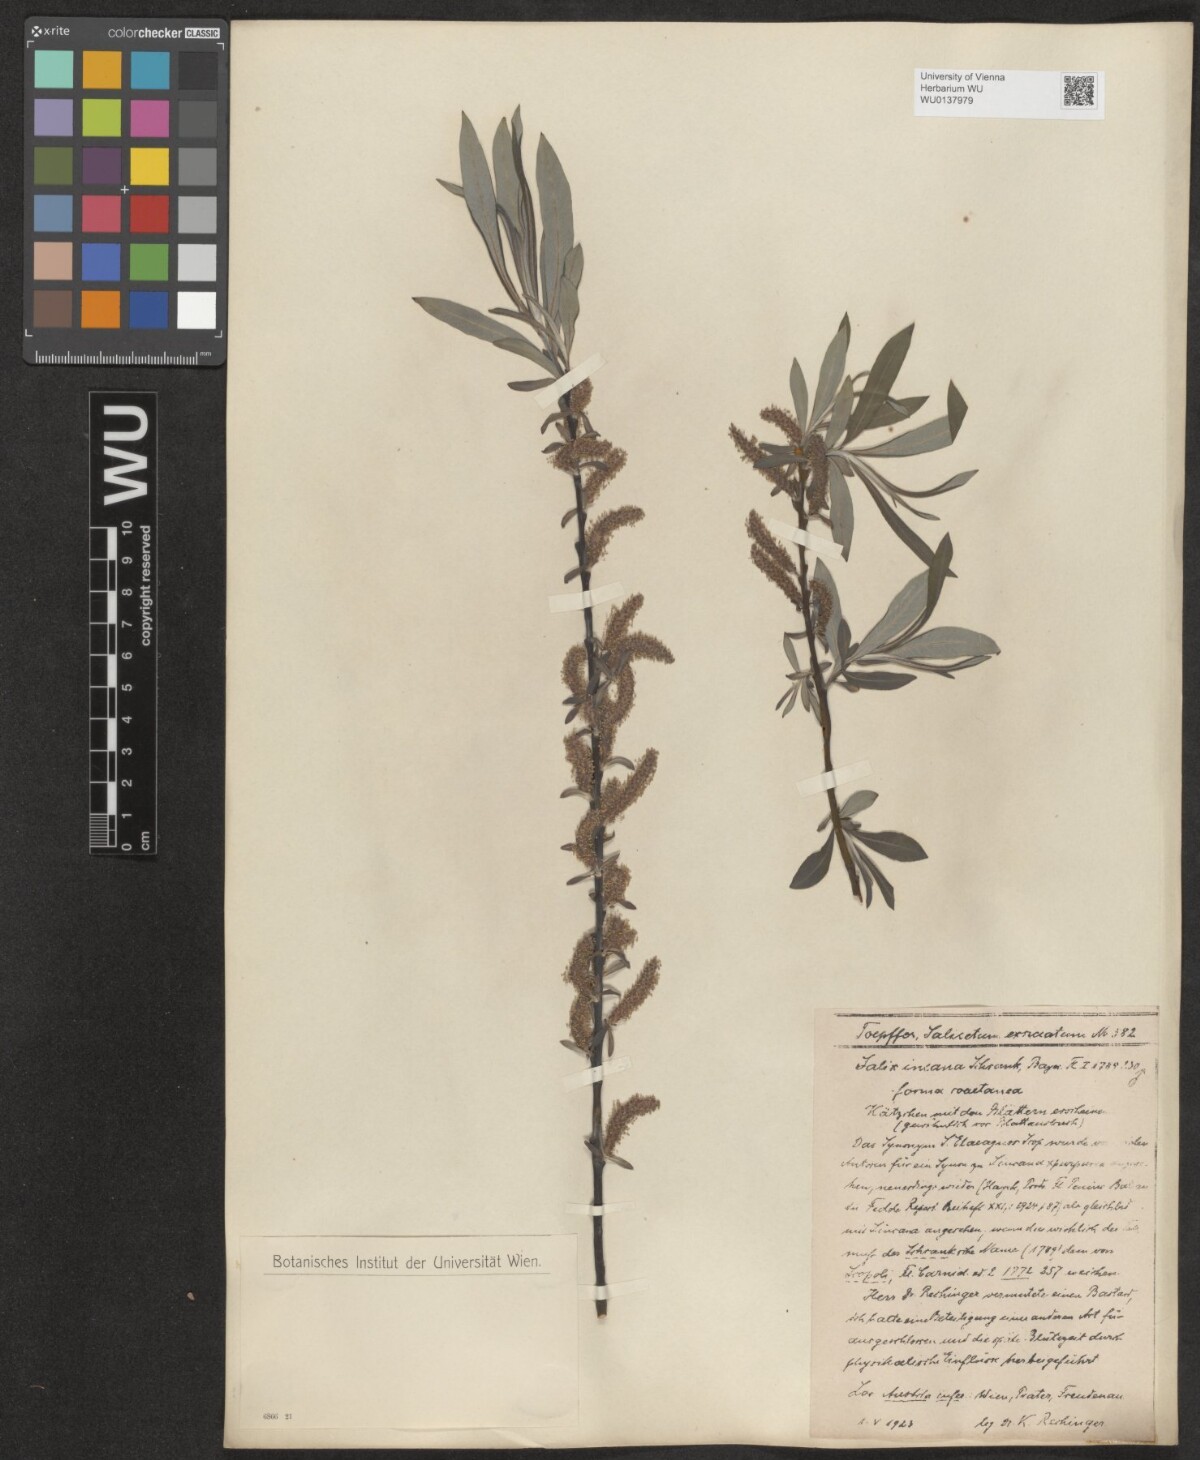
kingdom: Plantae
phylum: Tracheophyta
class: Magnoliopsida
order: Malpighiales
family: Salicaceae
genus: Salix
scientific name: Salix eleagnos
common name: Elaeagnus willow
